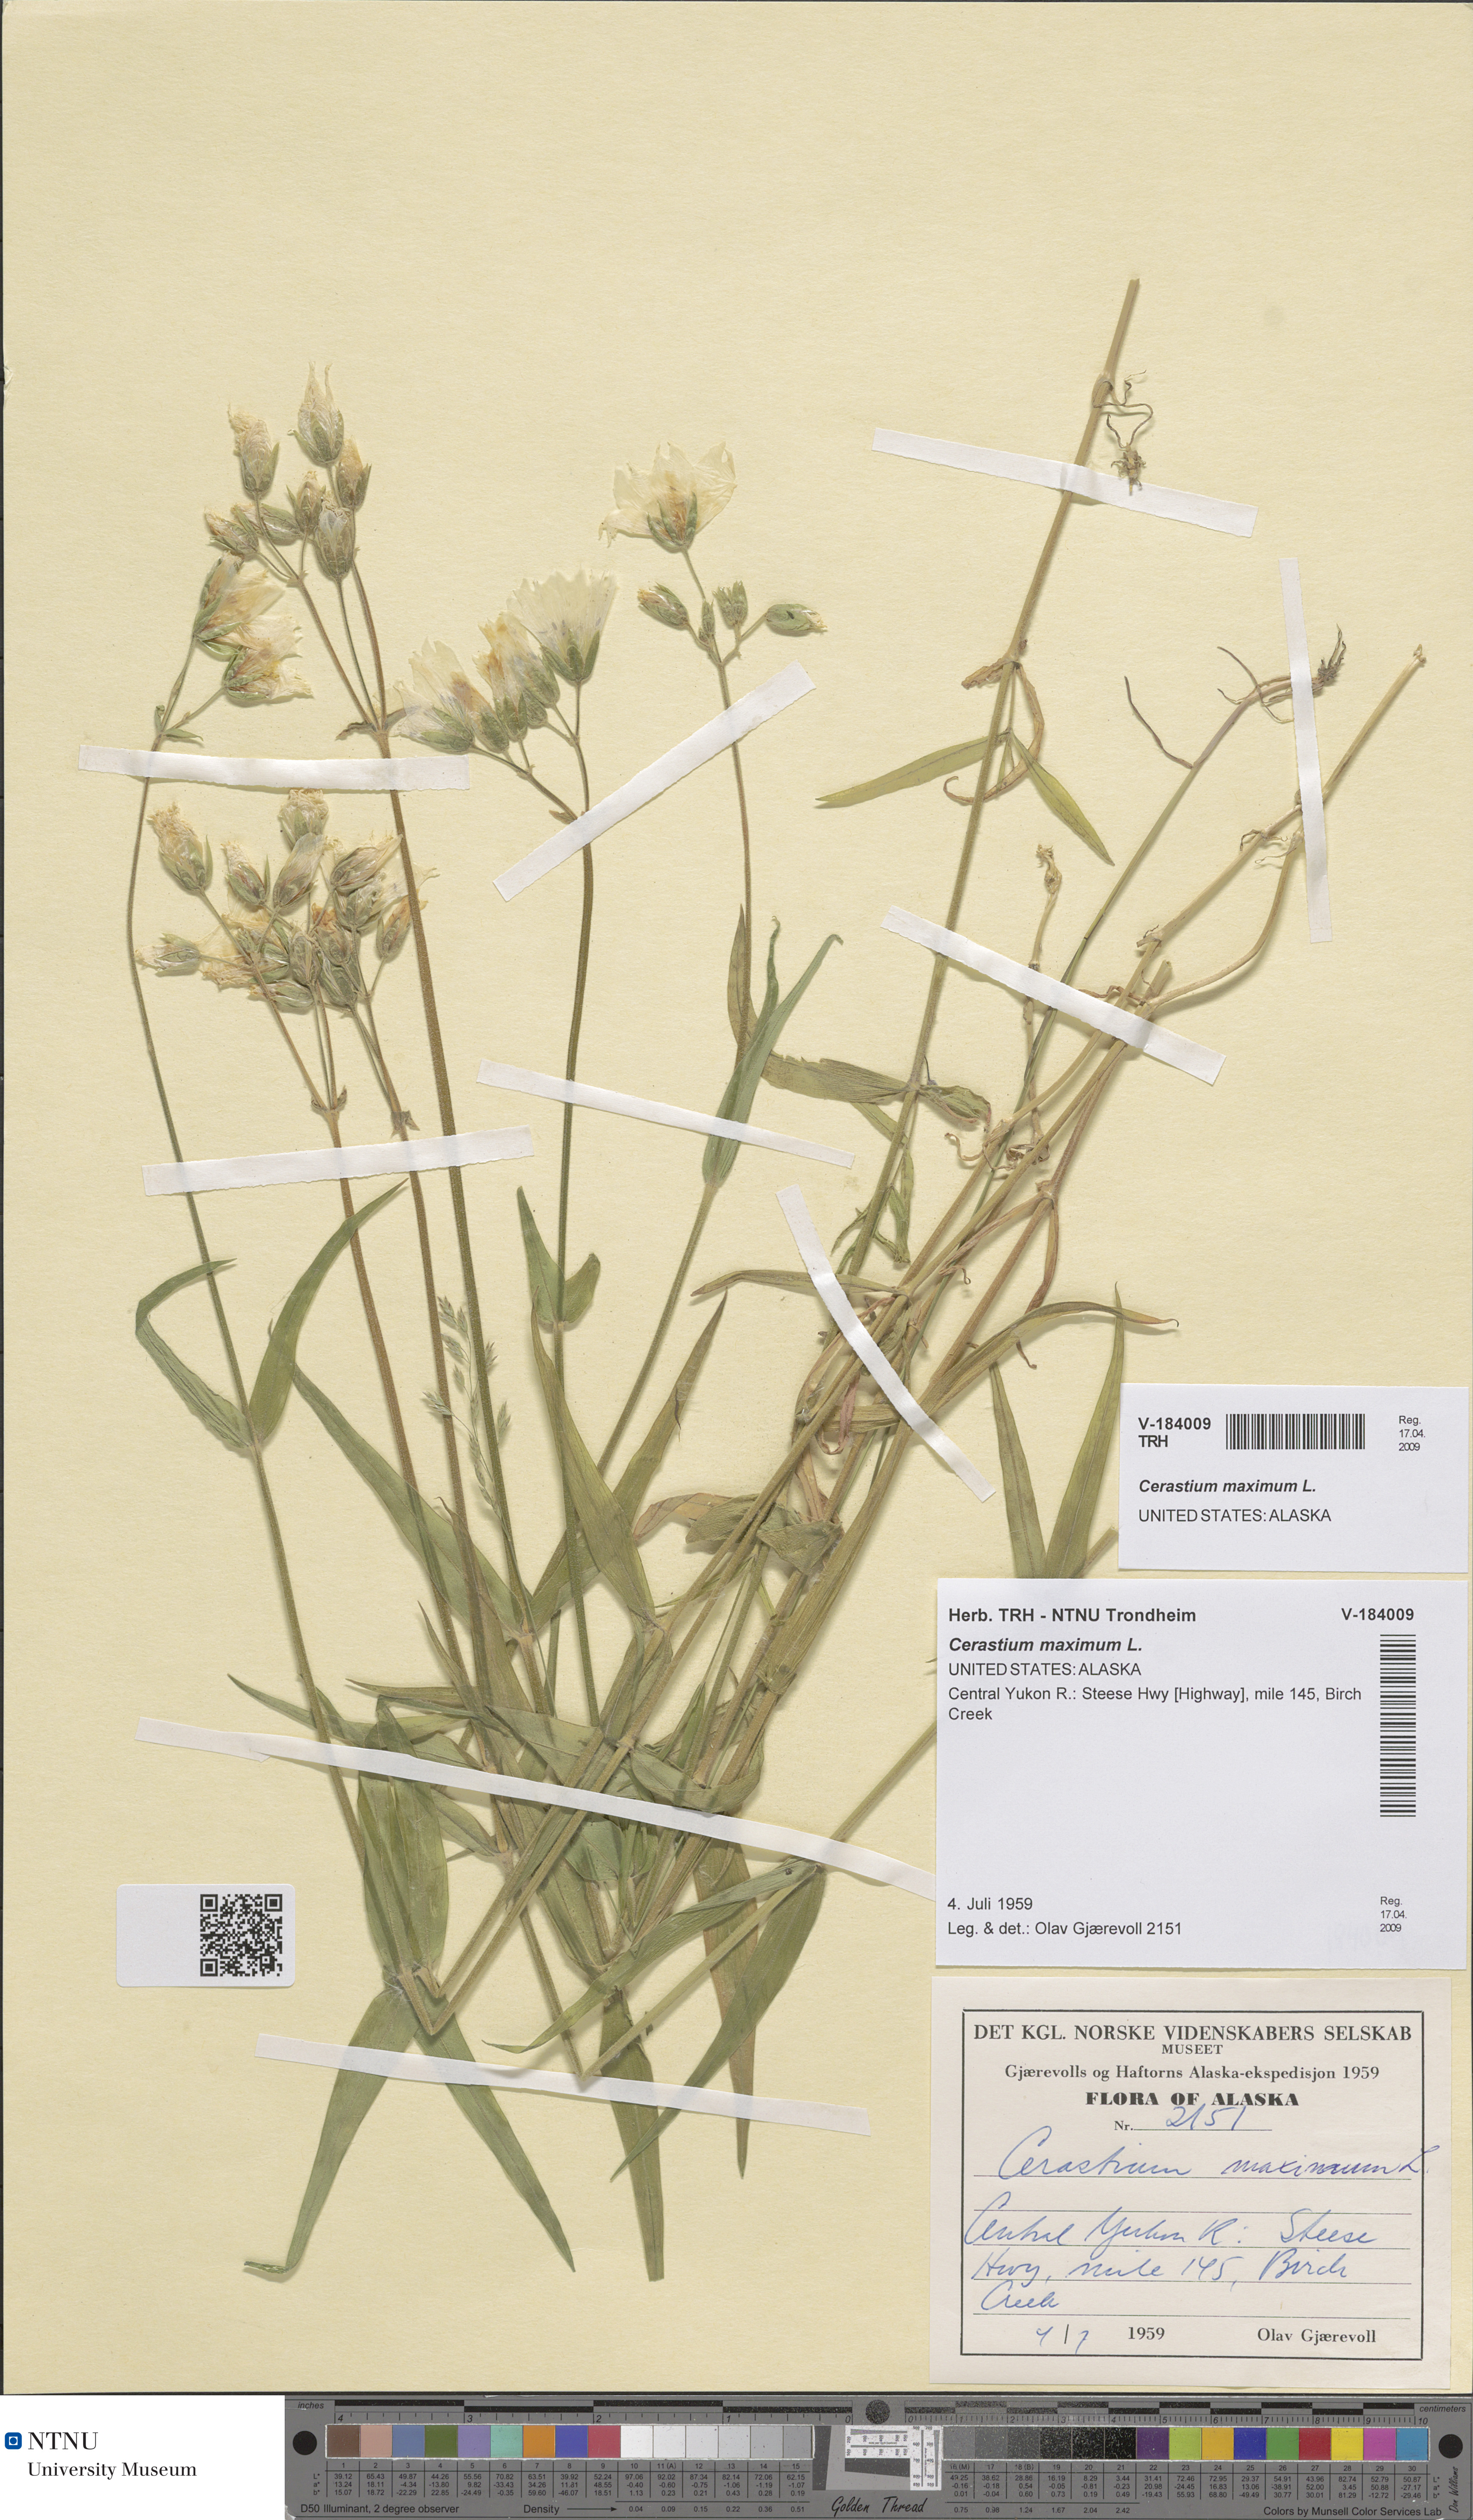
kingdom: Plantae
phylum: Tracheophyta
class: Magnoliopsida
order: Caryophyllales
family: Caryophyllaceae
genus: Dichodon
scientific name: Dichodon maximum
